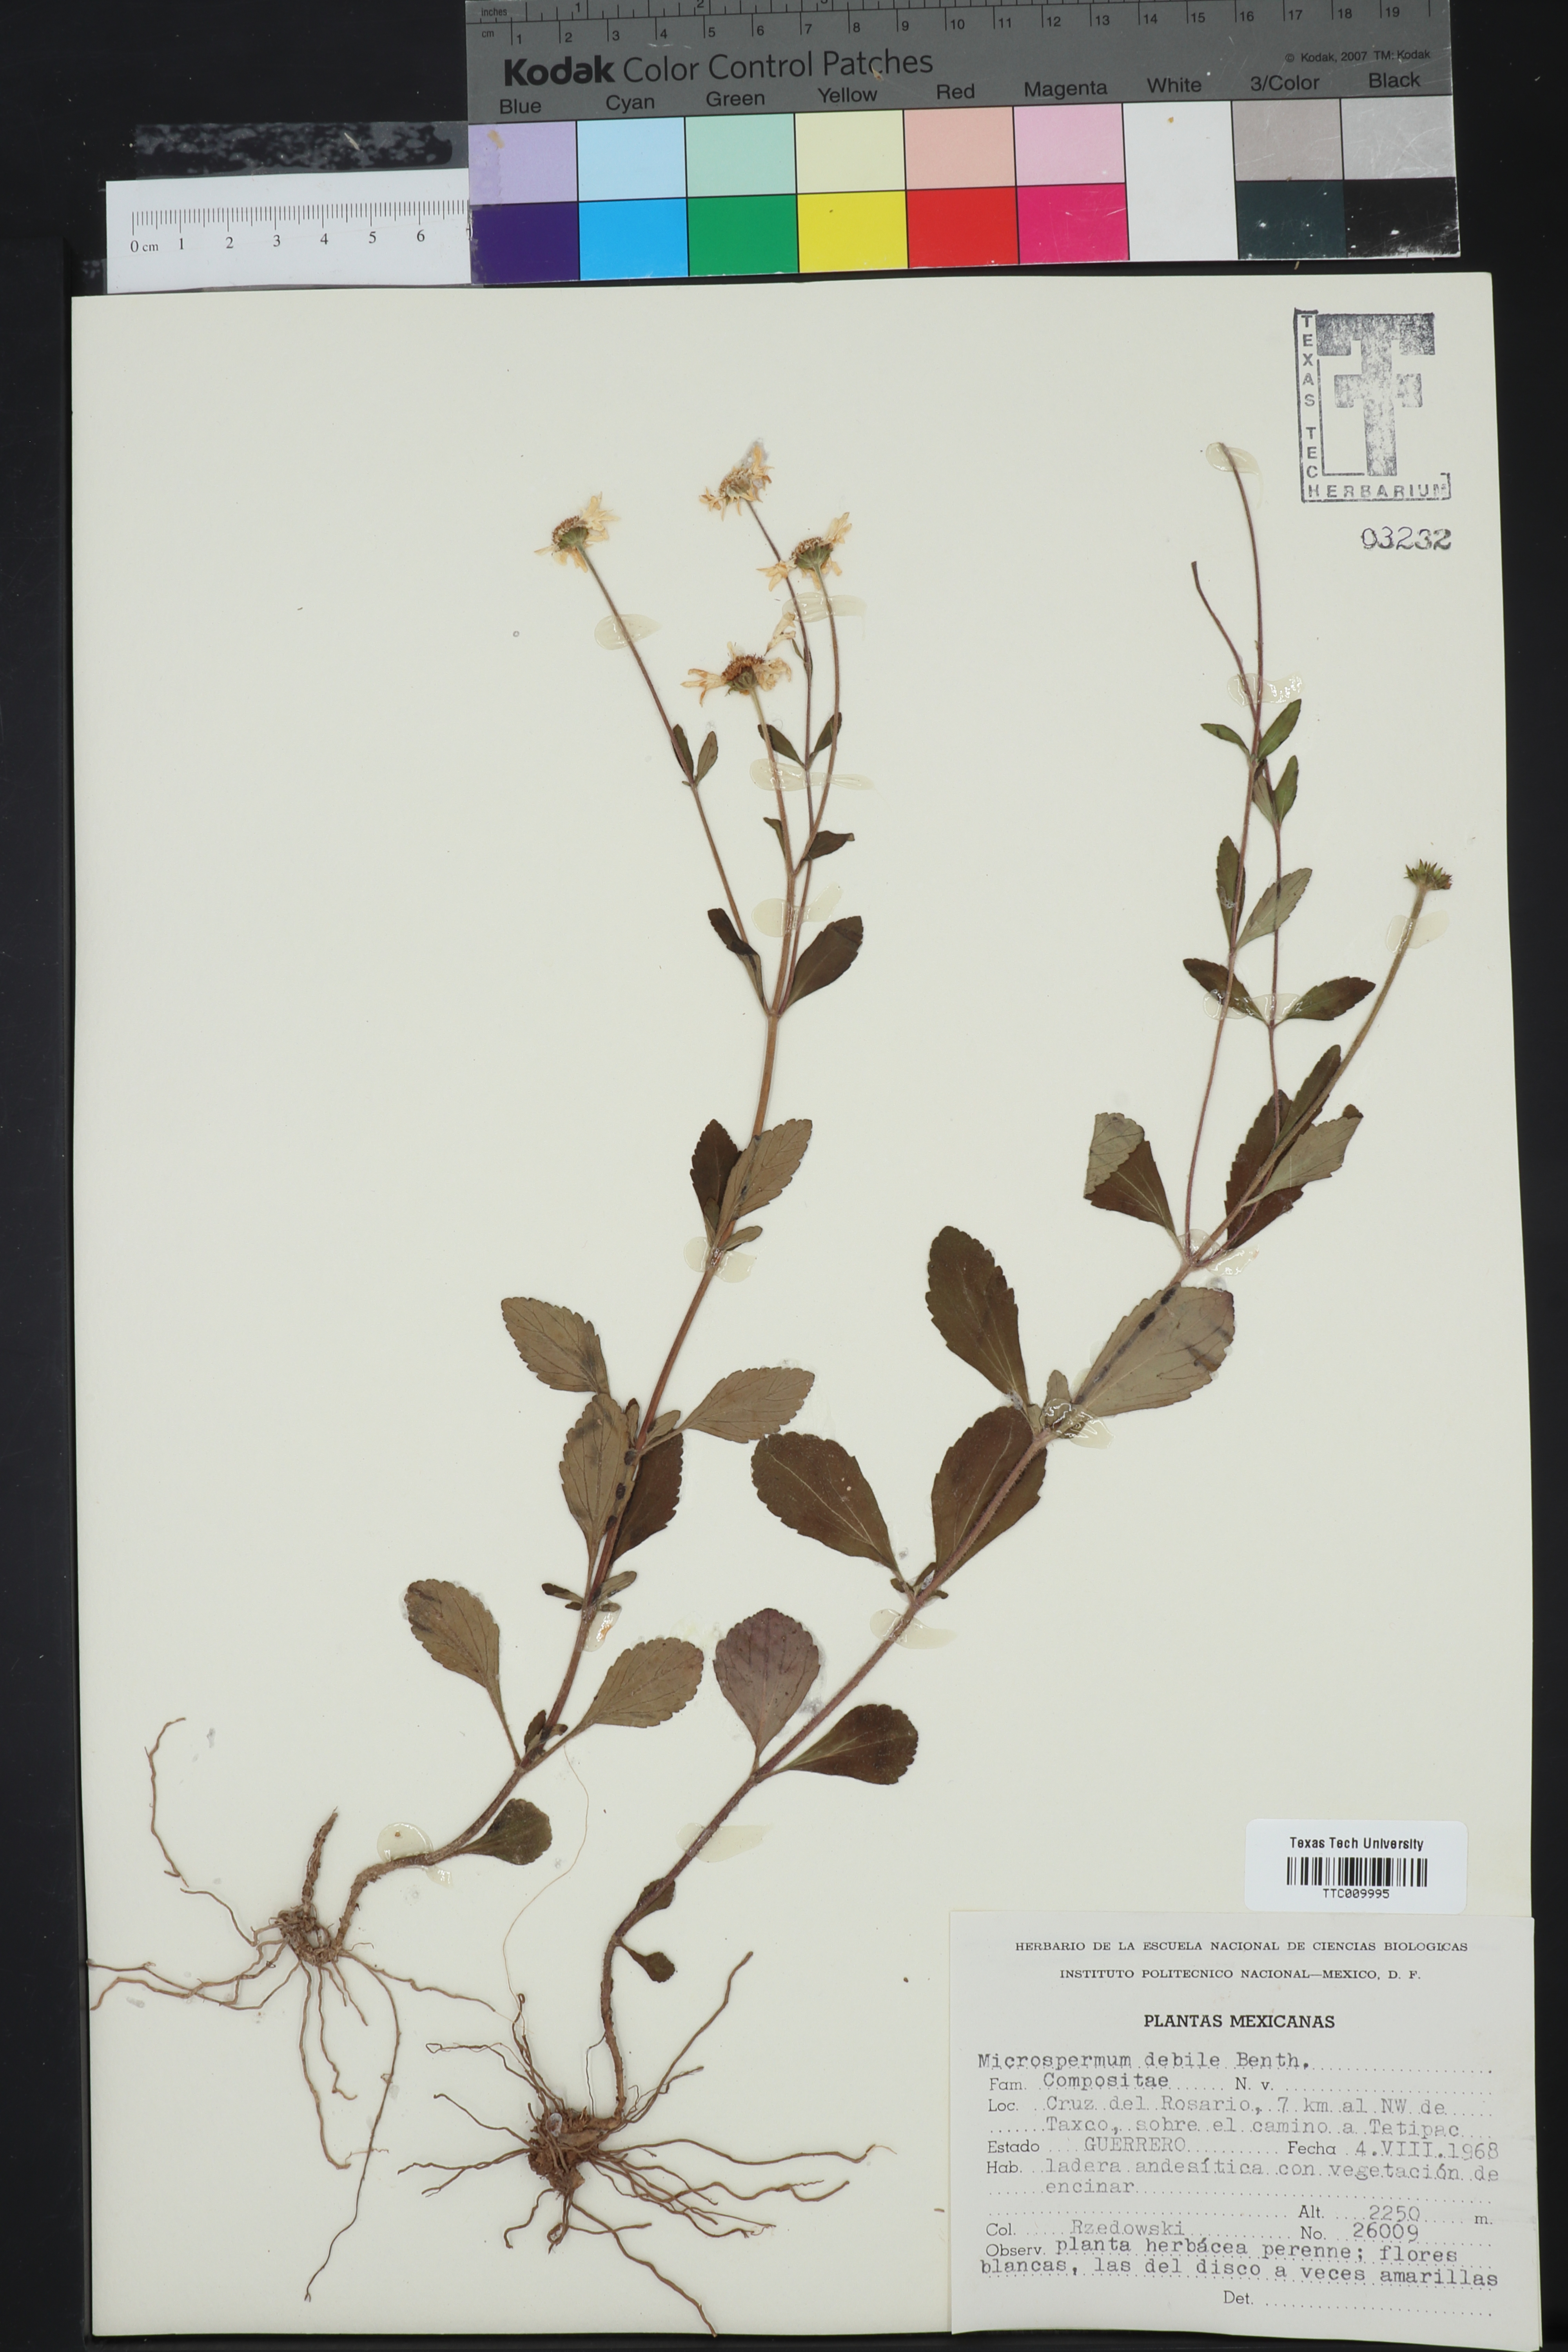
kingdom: Plantae
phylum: Tracheophyta
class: Magnoliopsida
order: Asterales
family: Asteraceae
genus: Microspermum
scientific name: Microspermum debile
